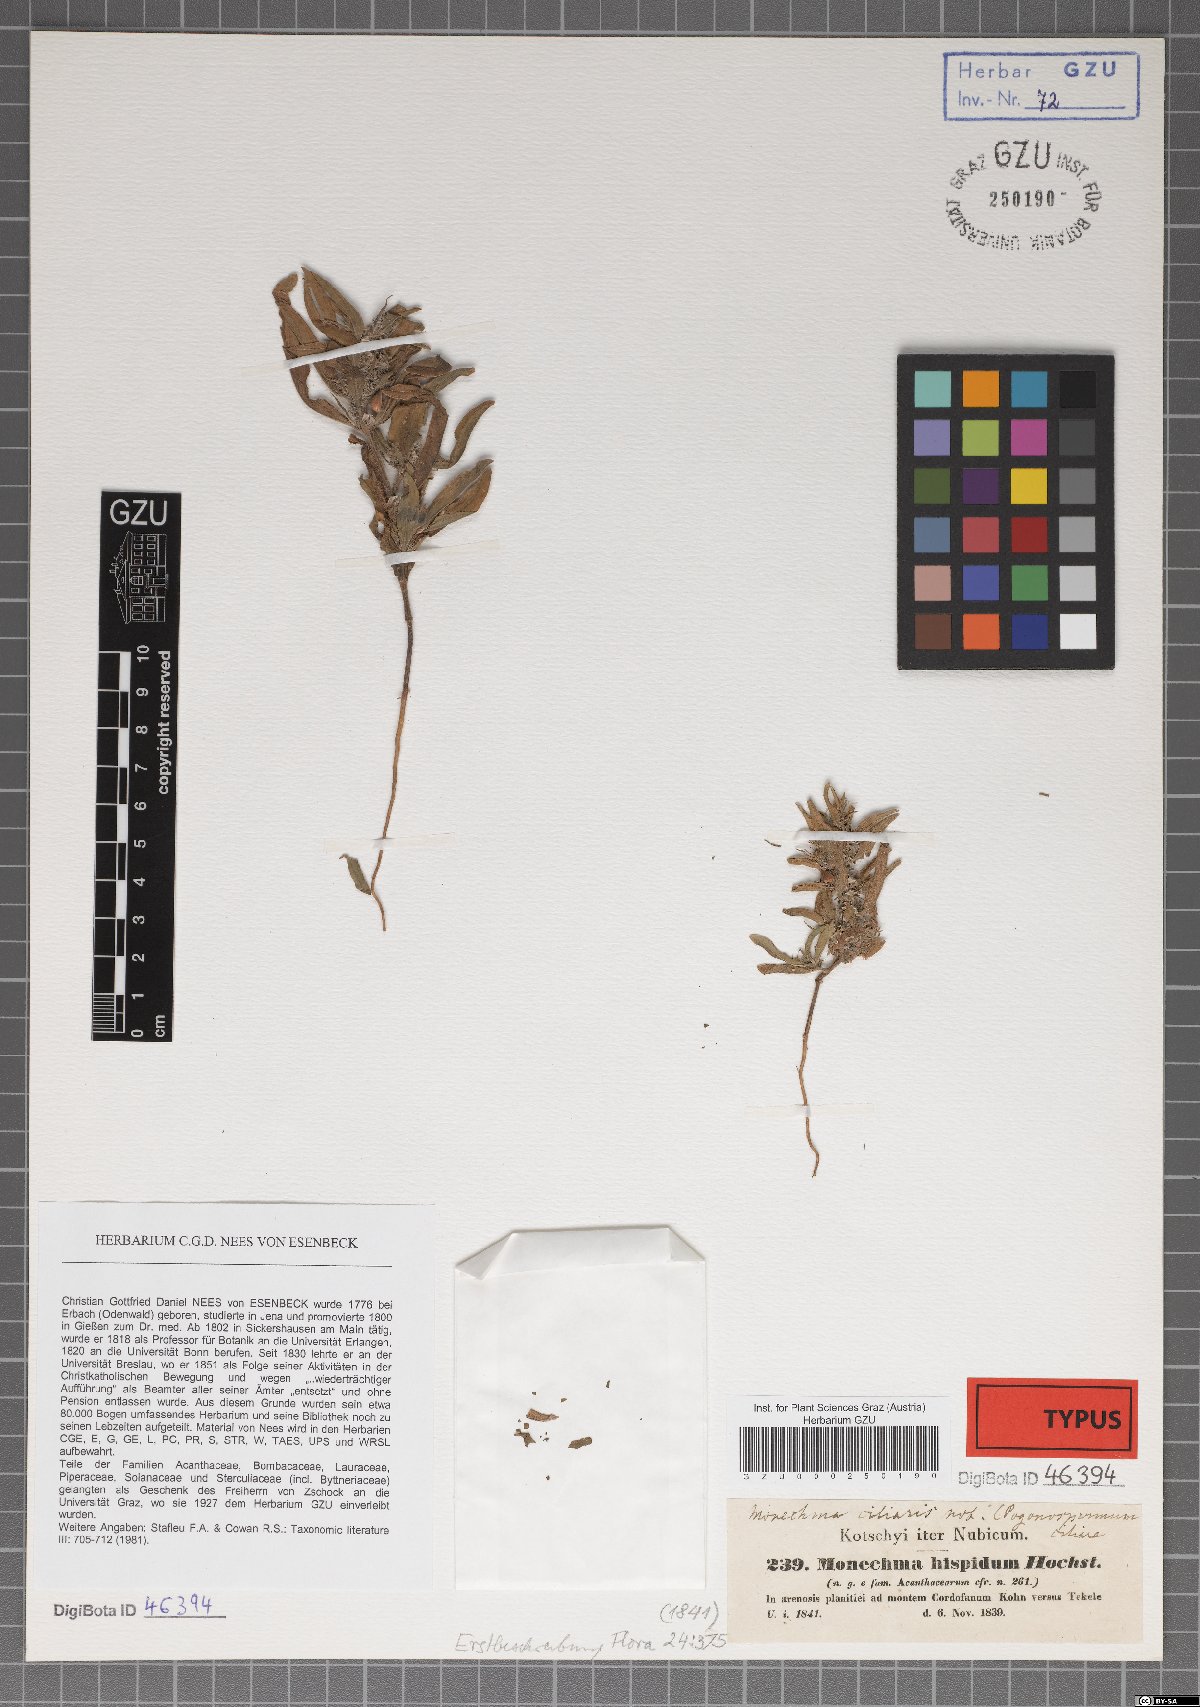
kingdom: Plantae
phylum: Tracheophyta
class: Magnoliopsida
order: Lamiales
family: Acanthaceae
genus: Pogonospermum
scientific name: Pogonospermum ciliare
